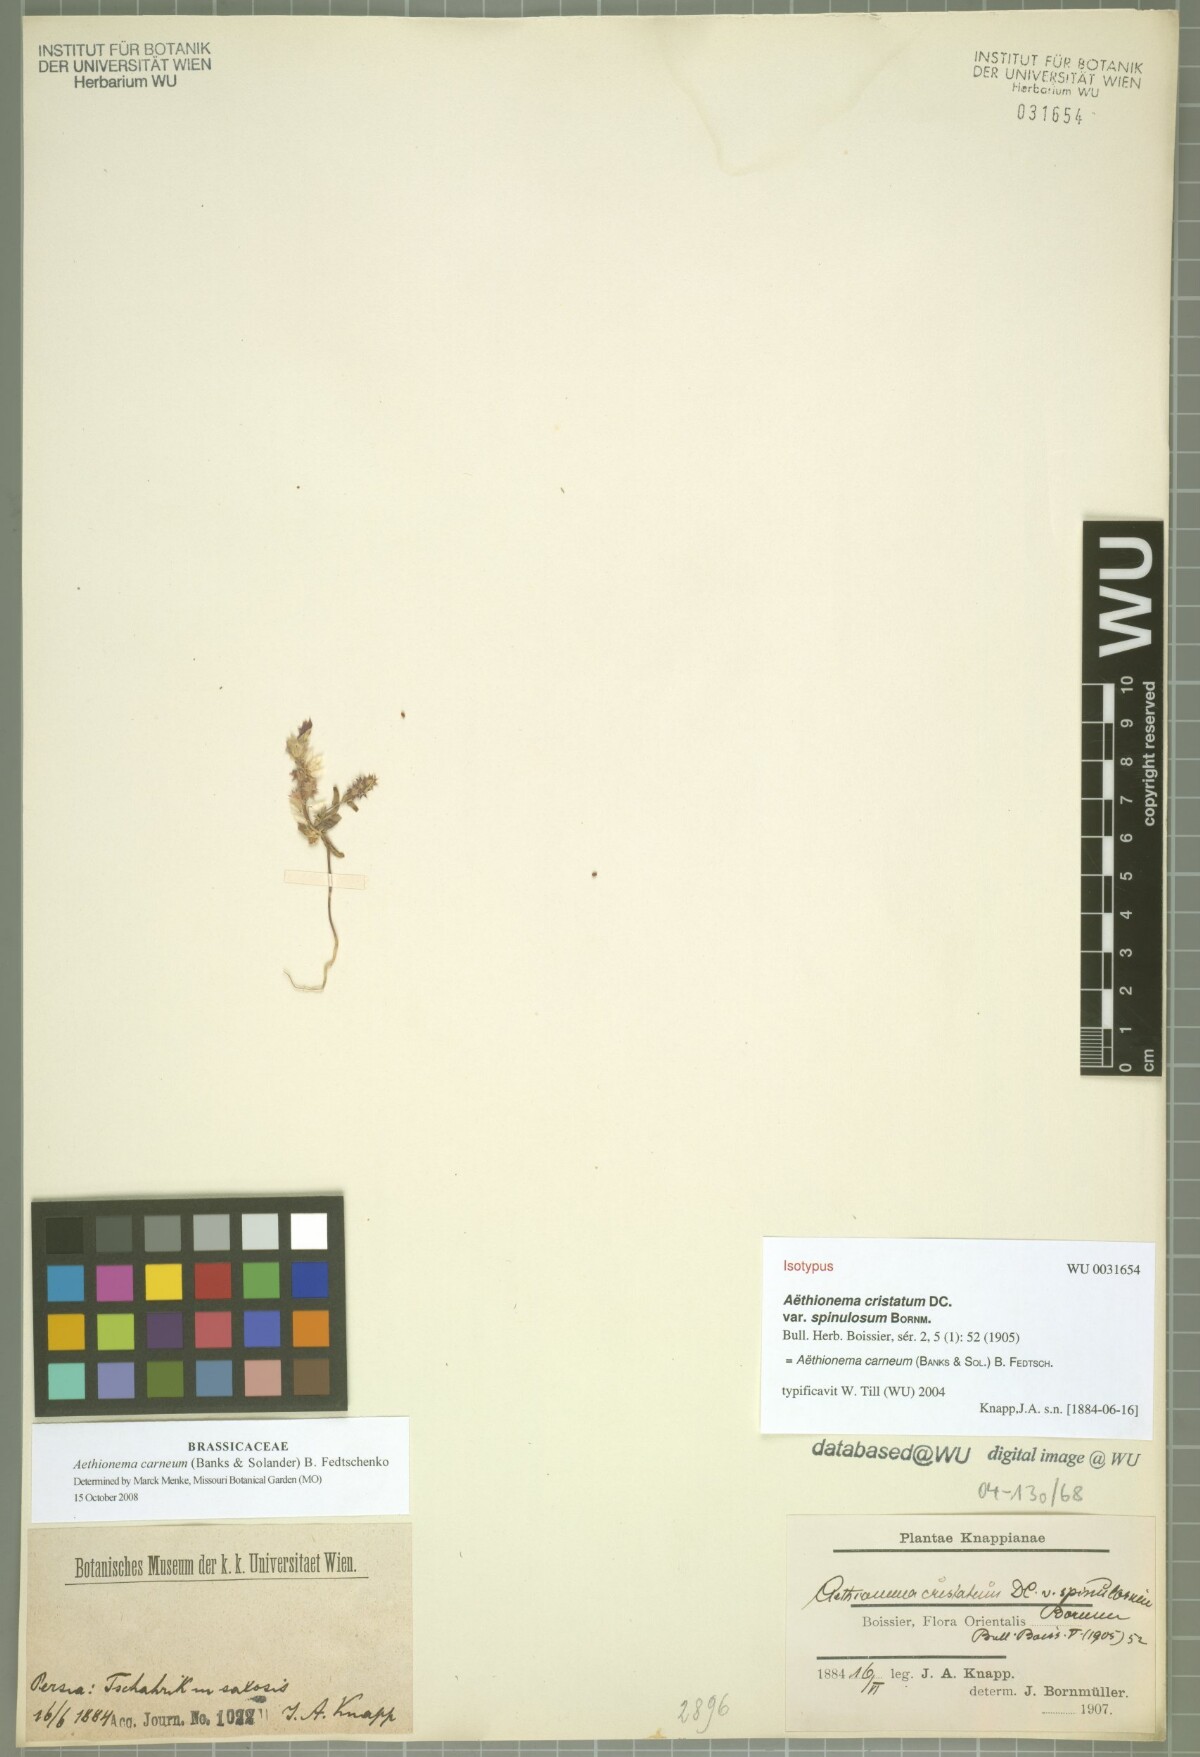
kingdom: Plantae
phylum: Tracheophyta
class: Magnoliopsida
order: Brassicales
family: Brassicaceae
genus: Aethionema
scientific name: Aethionema carneum
